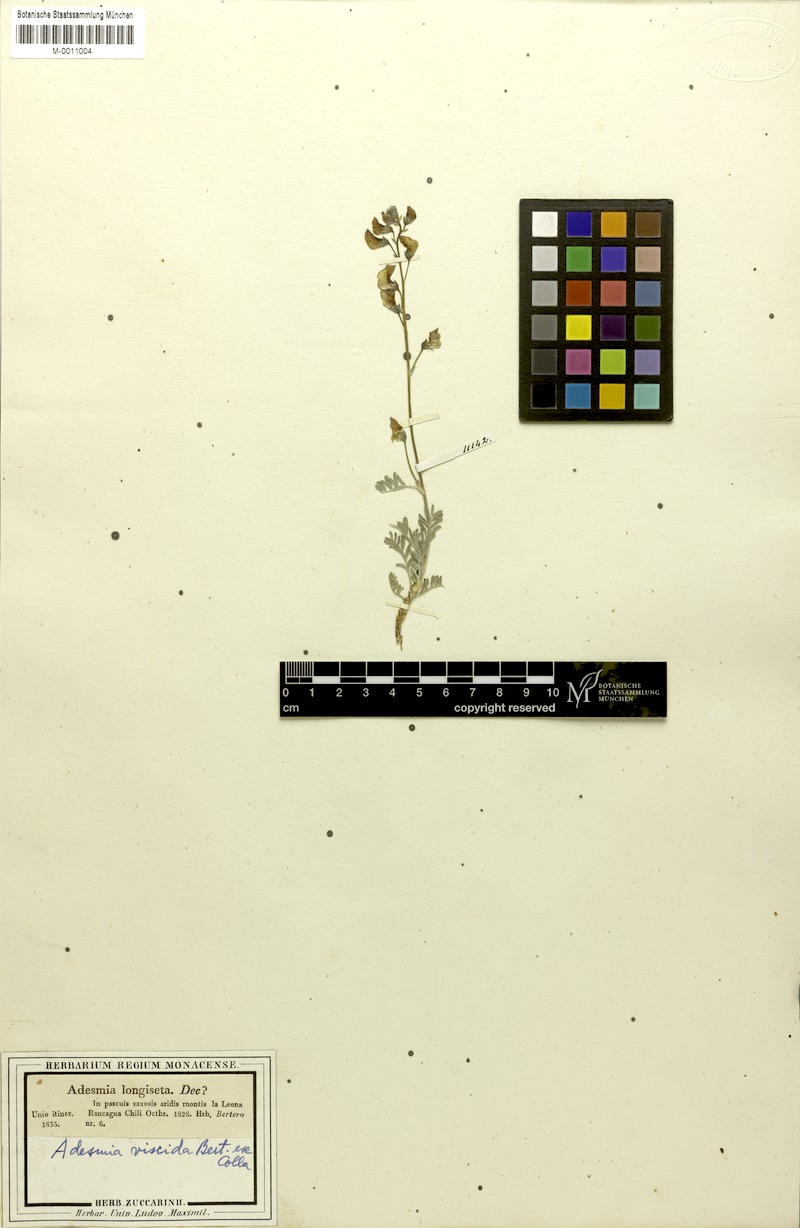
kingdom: Plantae
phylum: Tracheophyta
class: Magnoliopsida
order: Fabales
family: Fabaceae
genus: Adesmia
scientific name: Adesmia viscida
